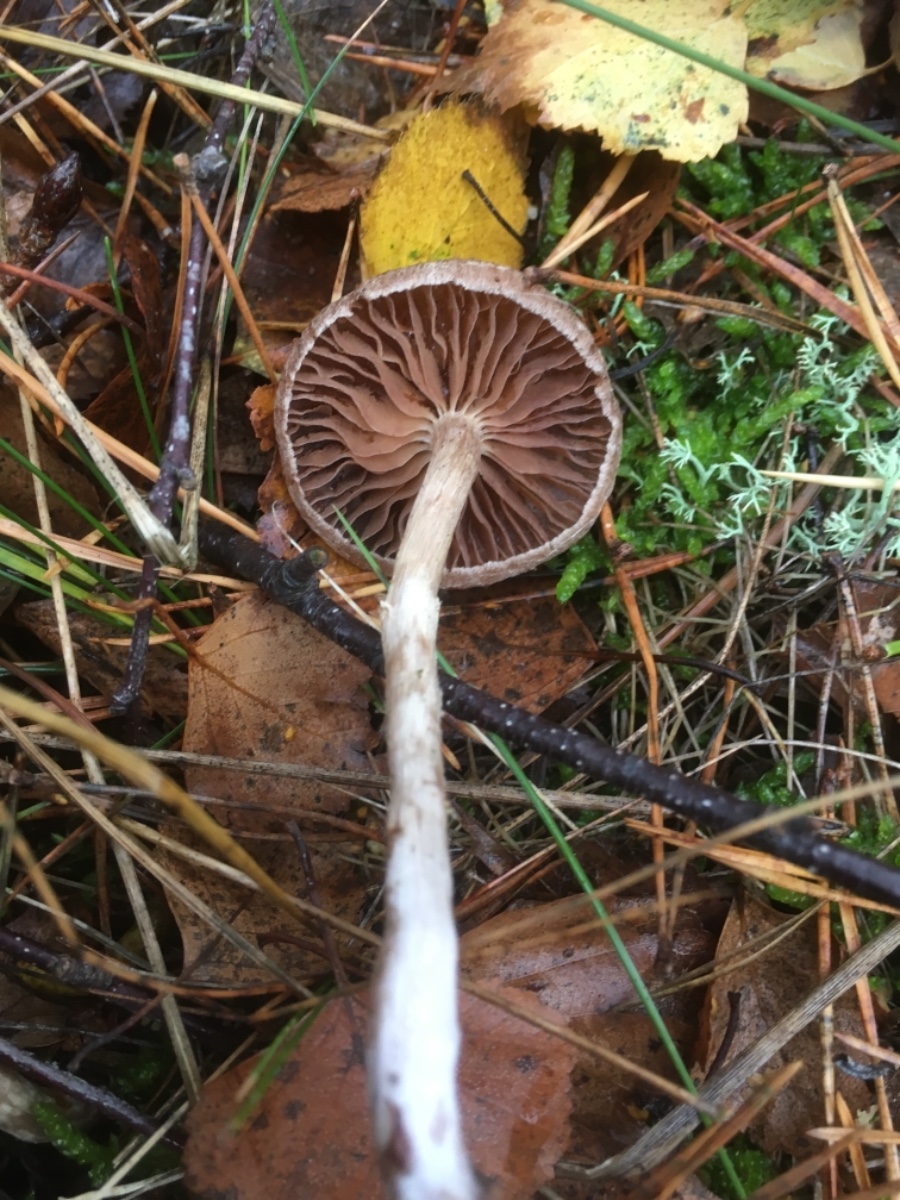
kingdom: Fungi
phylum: Basidiomycota
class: Agaricomycetes
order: Agaricales
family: Cortinariaceae
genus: Cortinarius
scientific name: Cortinarius
